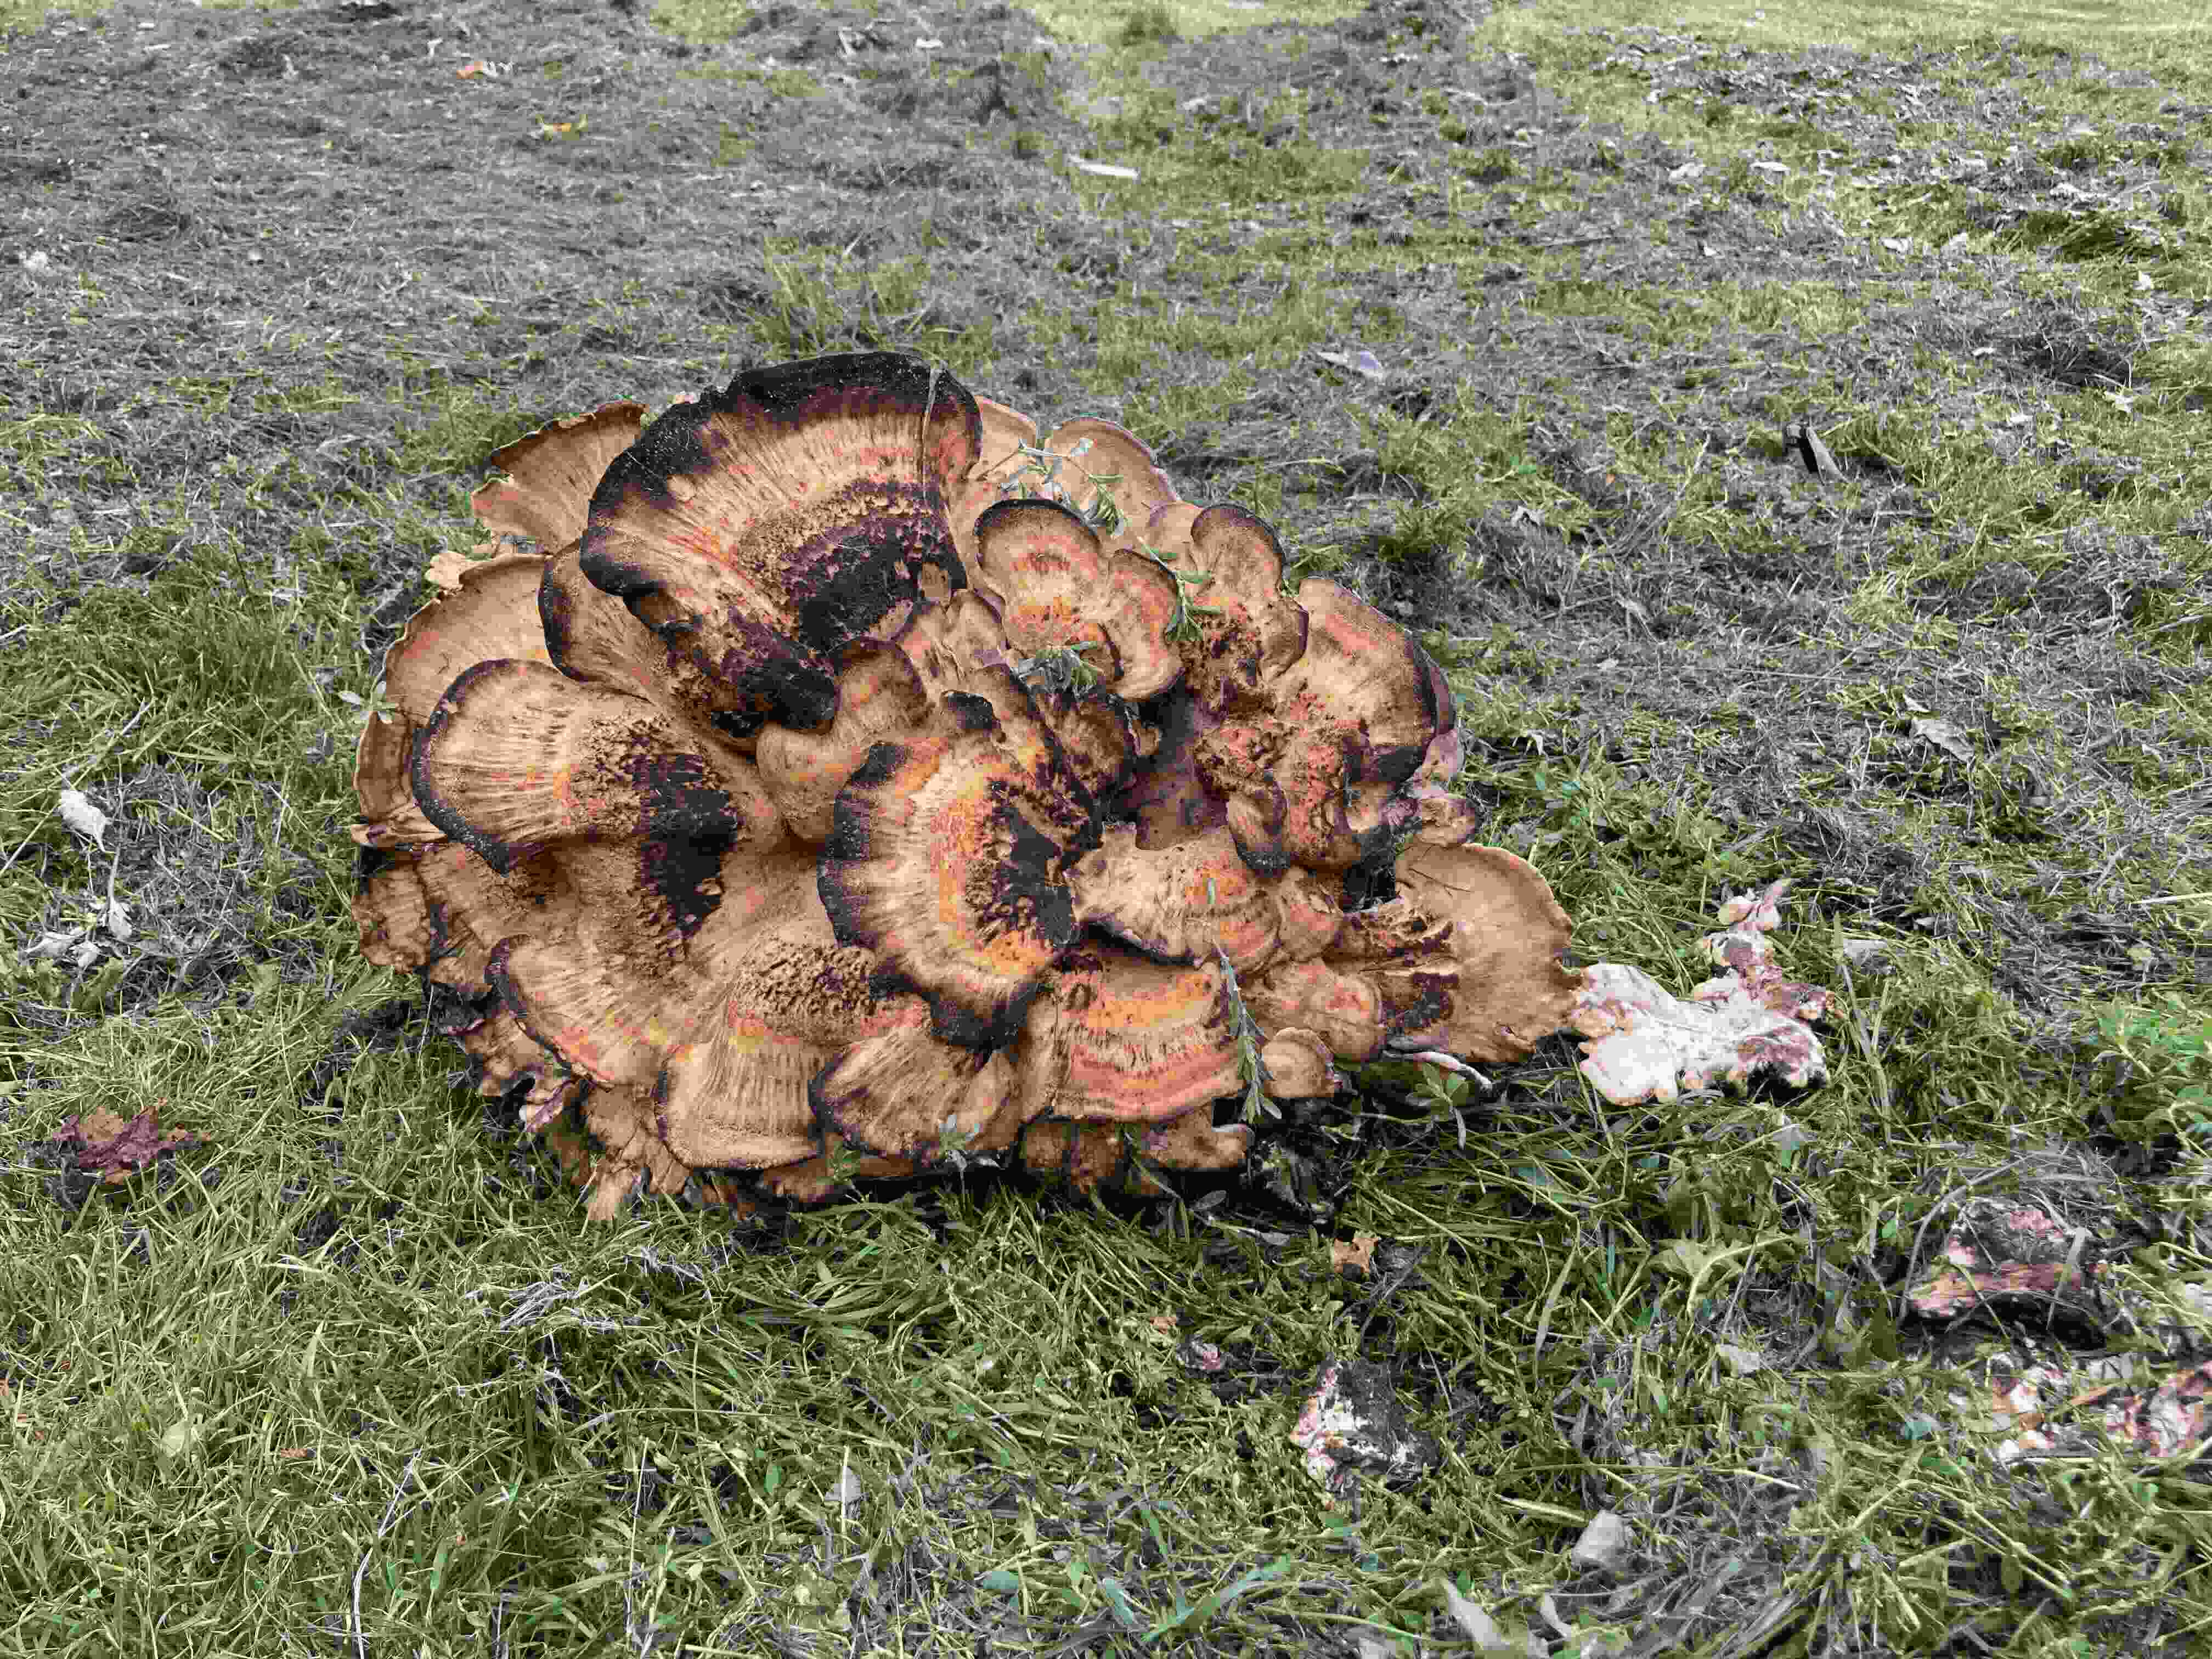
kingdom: Fungi
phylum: Basidiomycota
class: Agaricomycetes
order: Polyporales
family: Meripilaceae
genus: Meripilus
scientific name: Meripilus giganteus
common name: kæmpeporesvamp
